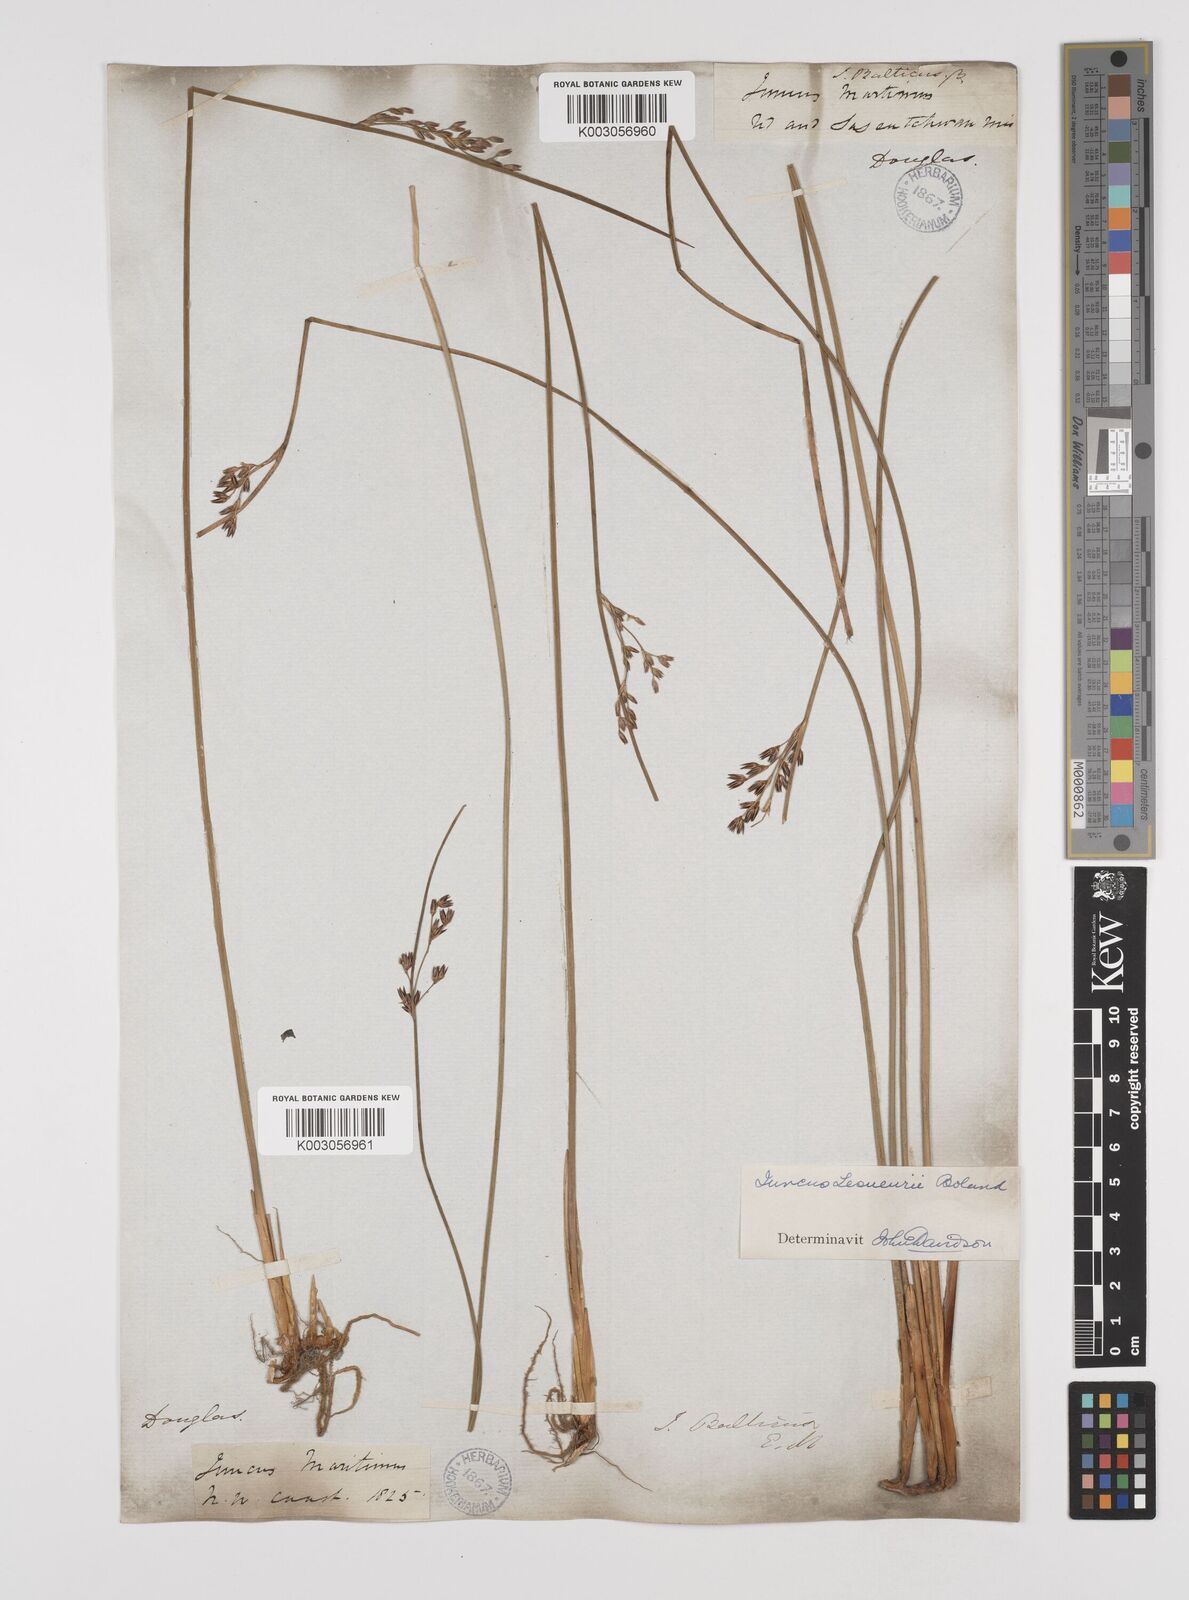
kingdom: Plantae
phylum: Tracheophyta
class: Liliopsida
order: Poales
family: Juncaceae
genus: Juncus
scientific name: Juncus lesueurii
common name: Lesueur's rush
